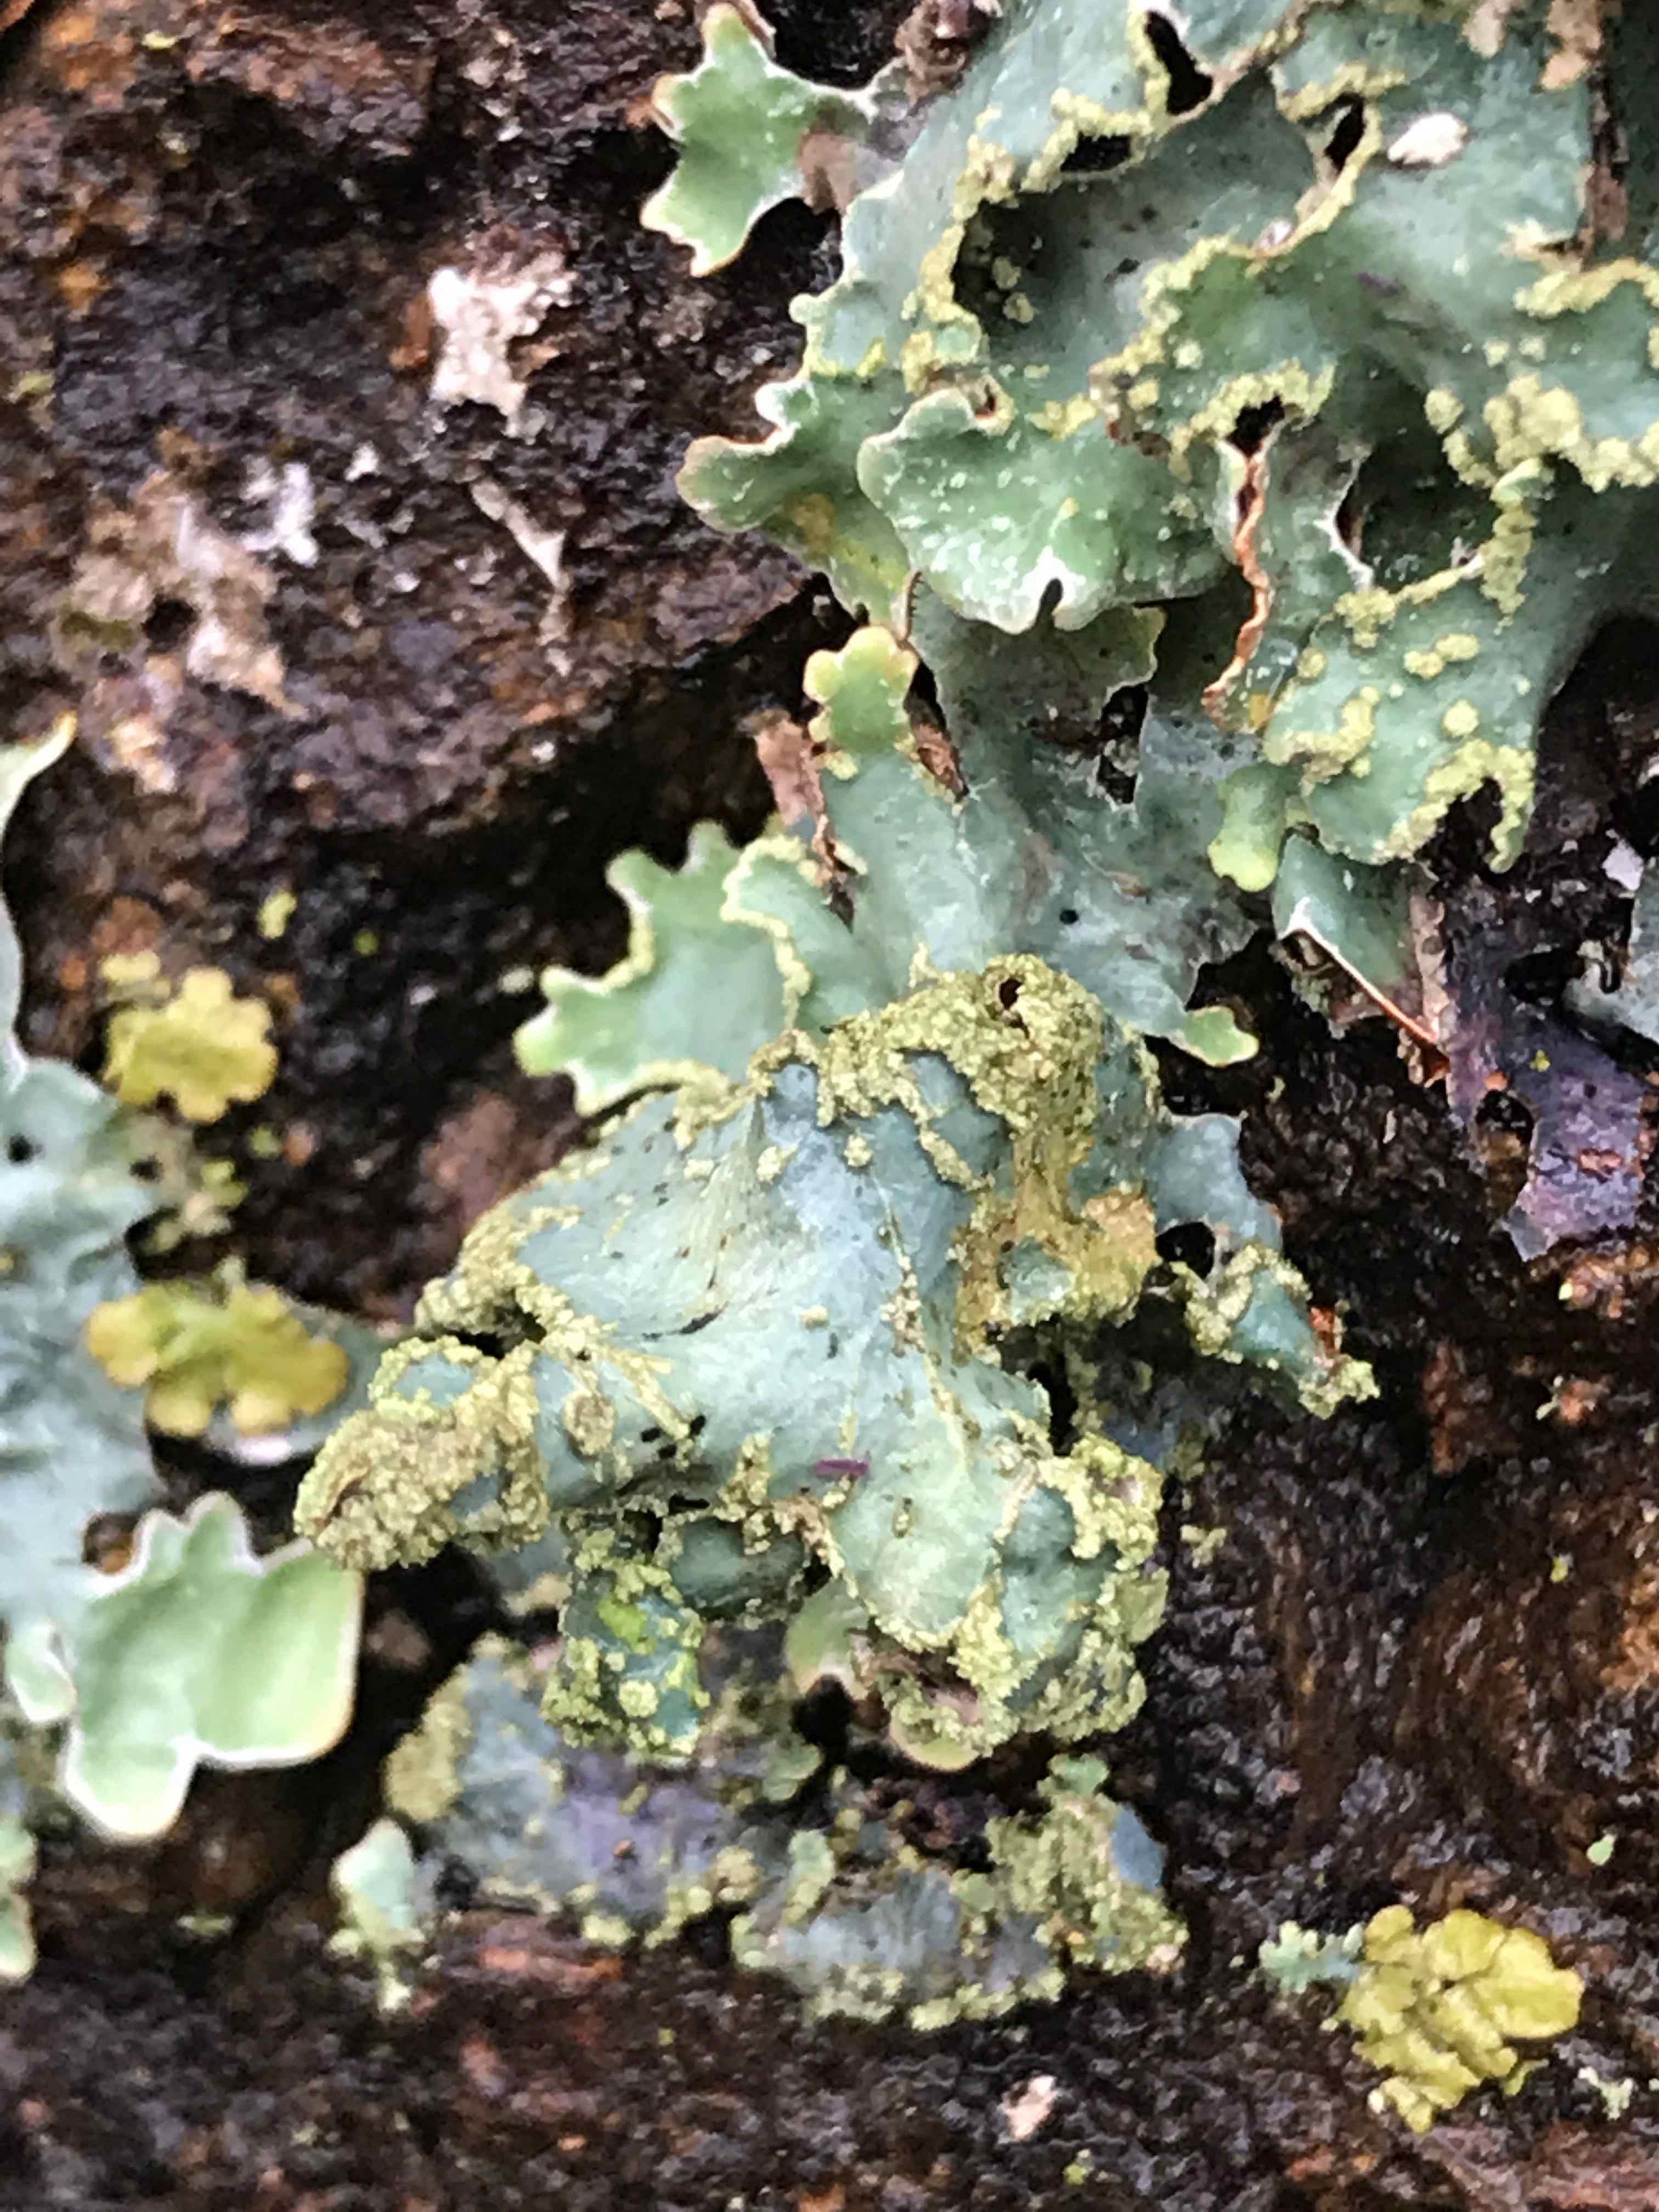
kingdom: Fungi
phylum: Ascomycota
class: Lecanoromycetes
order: Lecanorales
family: Parmeliaceae
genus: Parmelia
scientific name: Parmelia sulcata
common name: rynket skållav
